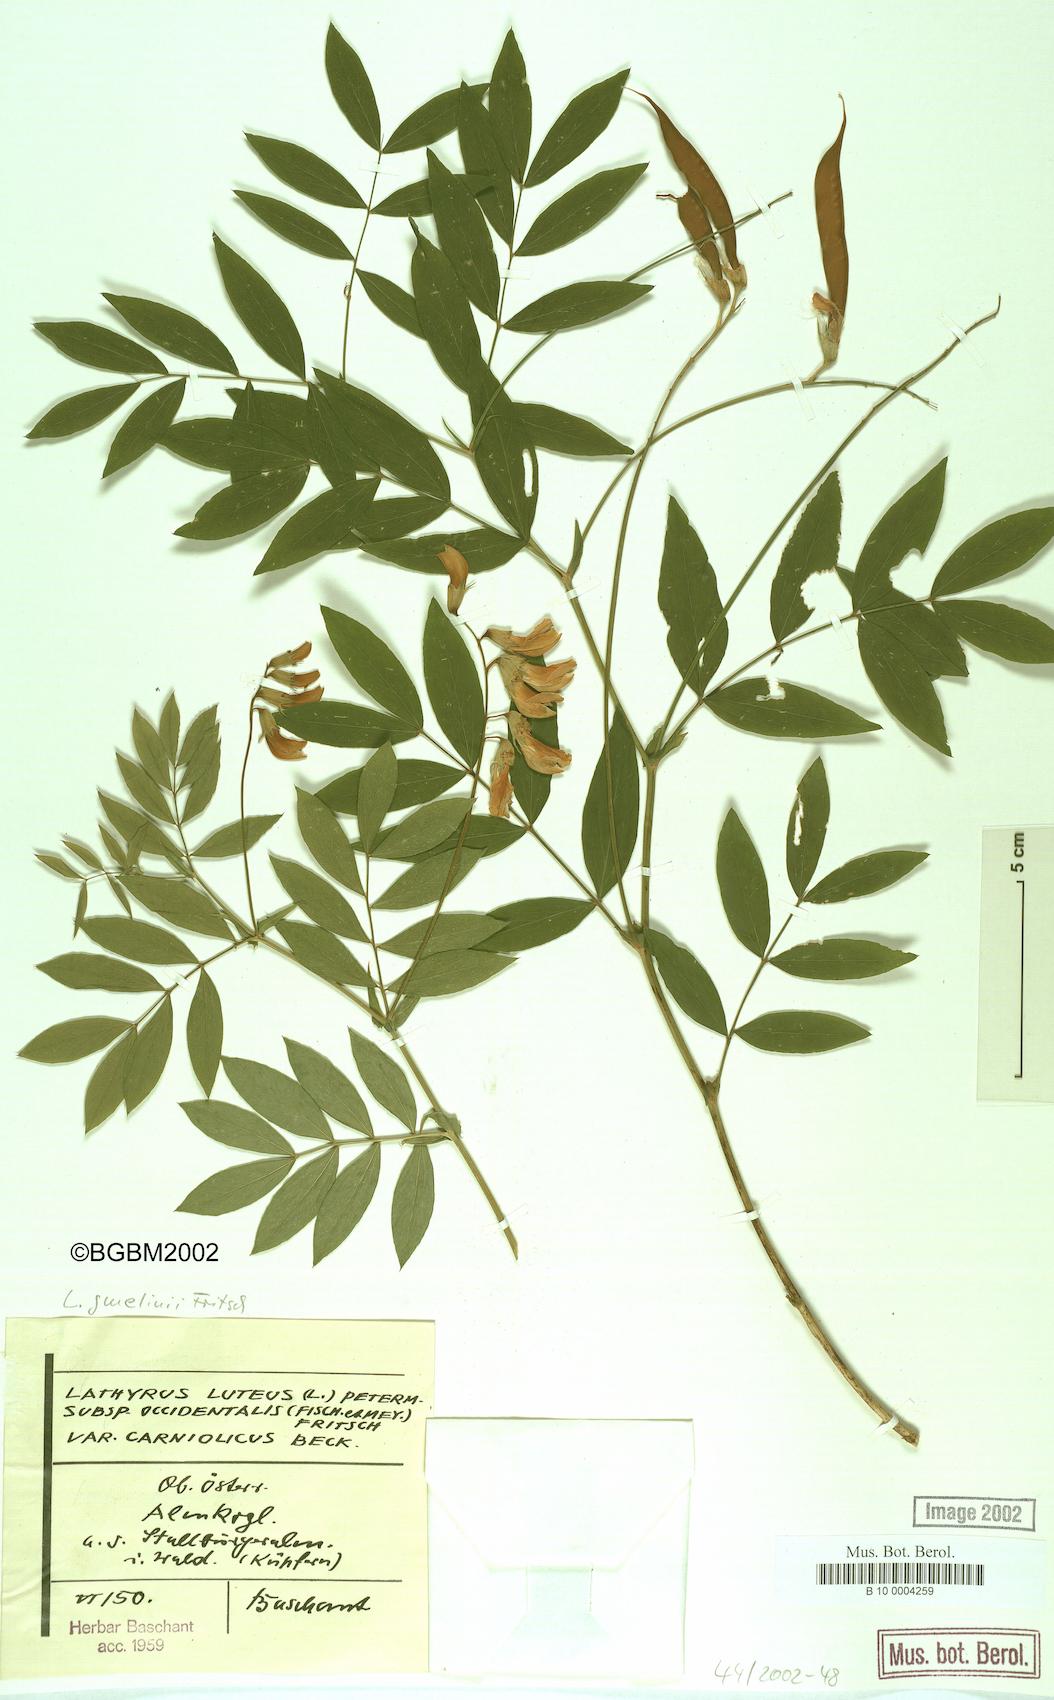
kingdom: Plantae
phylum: Tracheophyta
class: Magnoliopsida
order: Fabales
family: Fabaceae
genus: Lathyrus
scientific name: Lathyrus gmelinii
